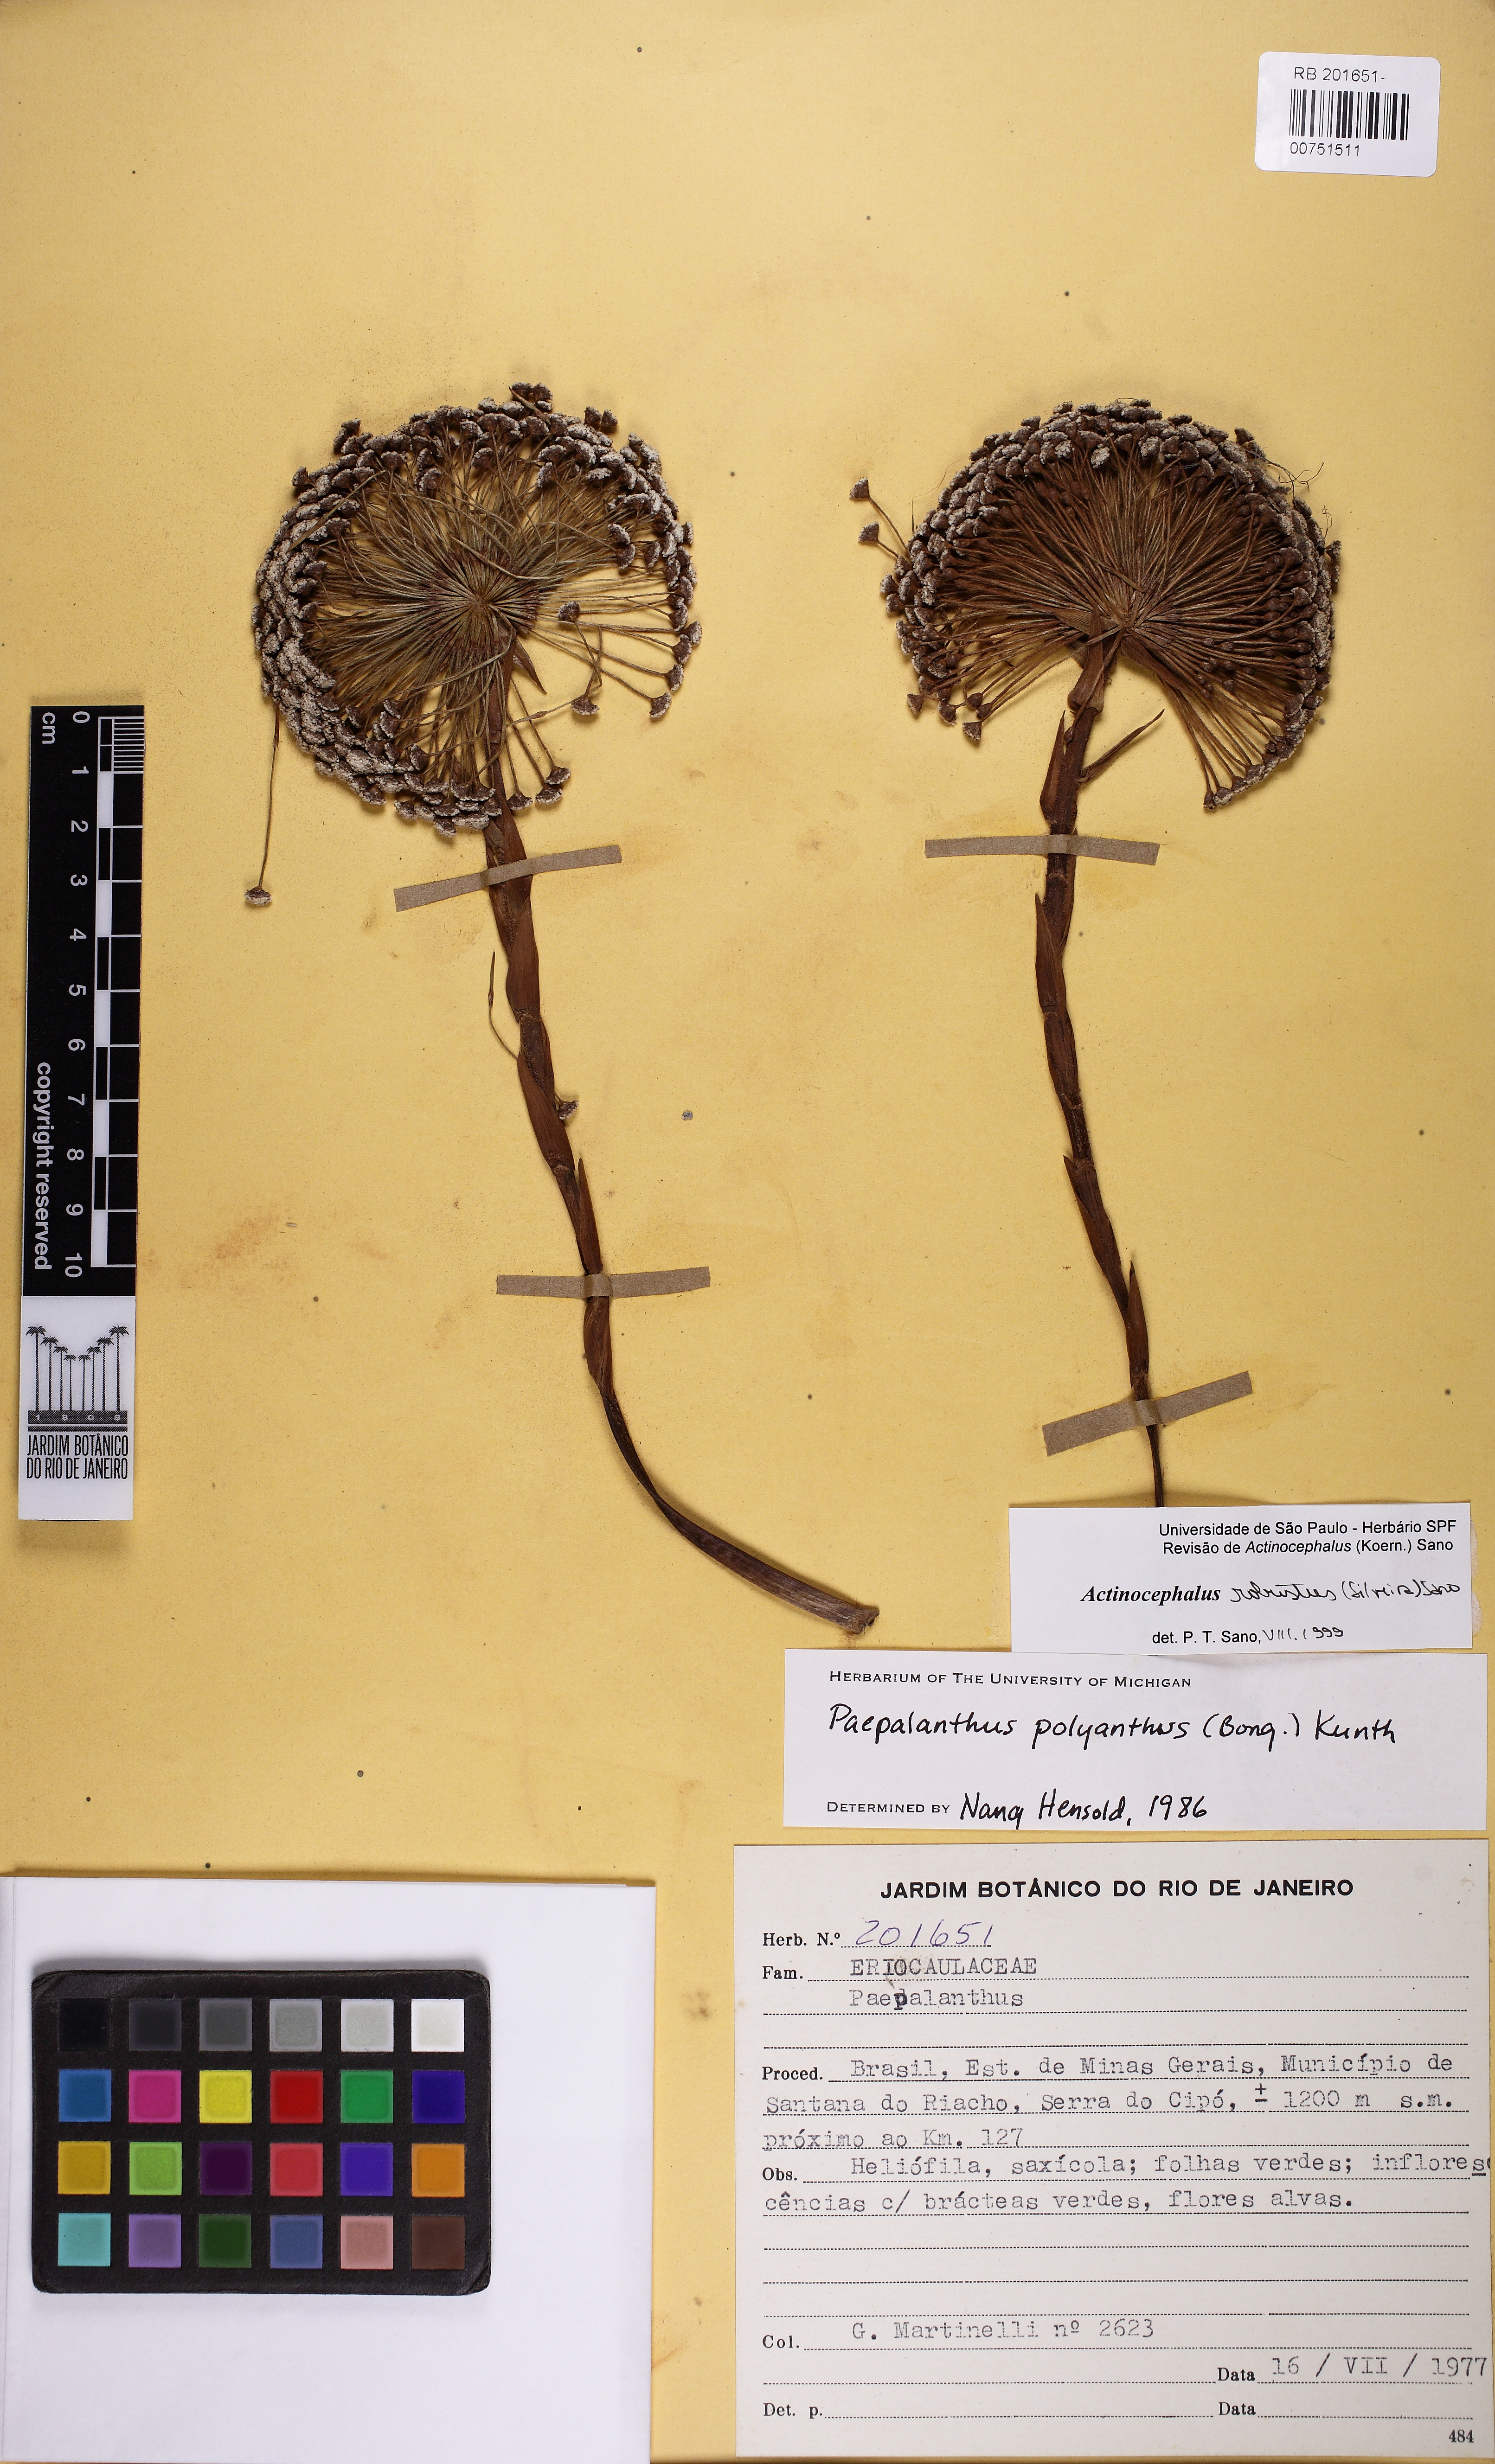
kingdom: Plantae
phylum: Tracheophyta
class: Liliopsida
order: Poales
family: Eriocaulaceae
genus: Paepalanthus
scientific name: Paepalanthus robustus
